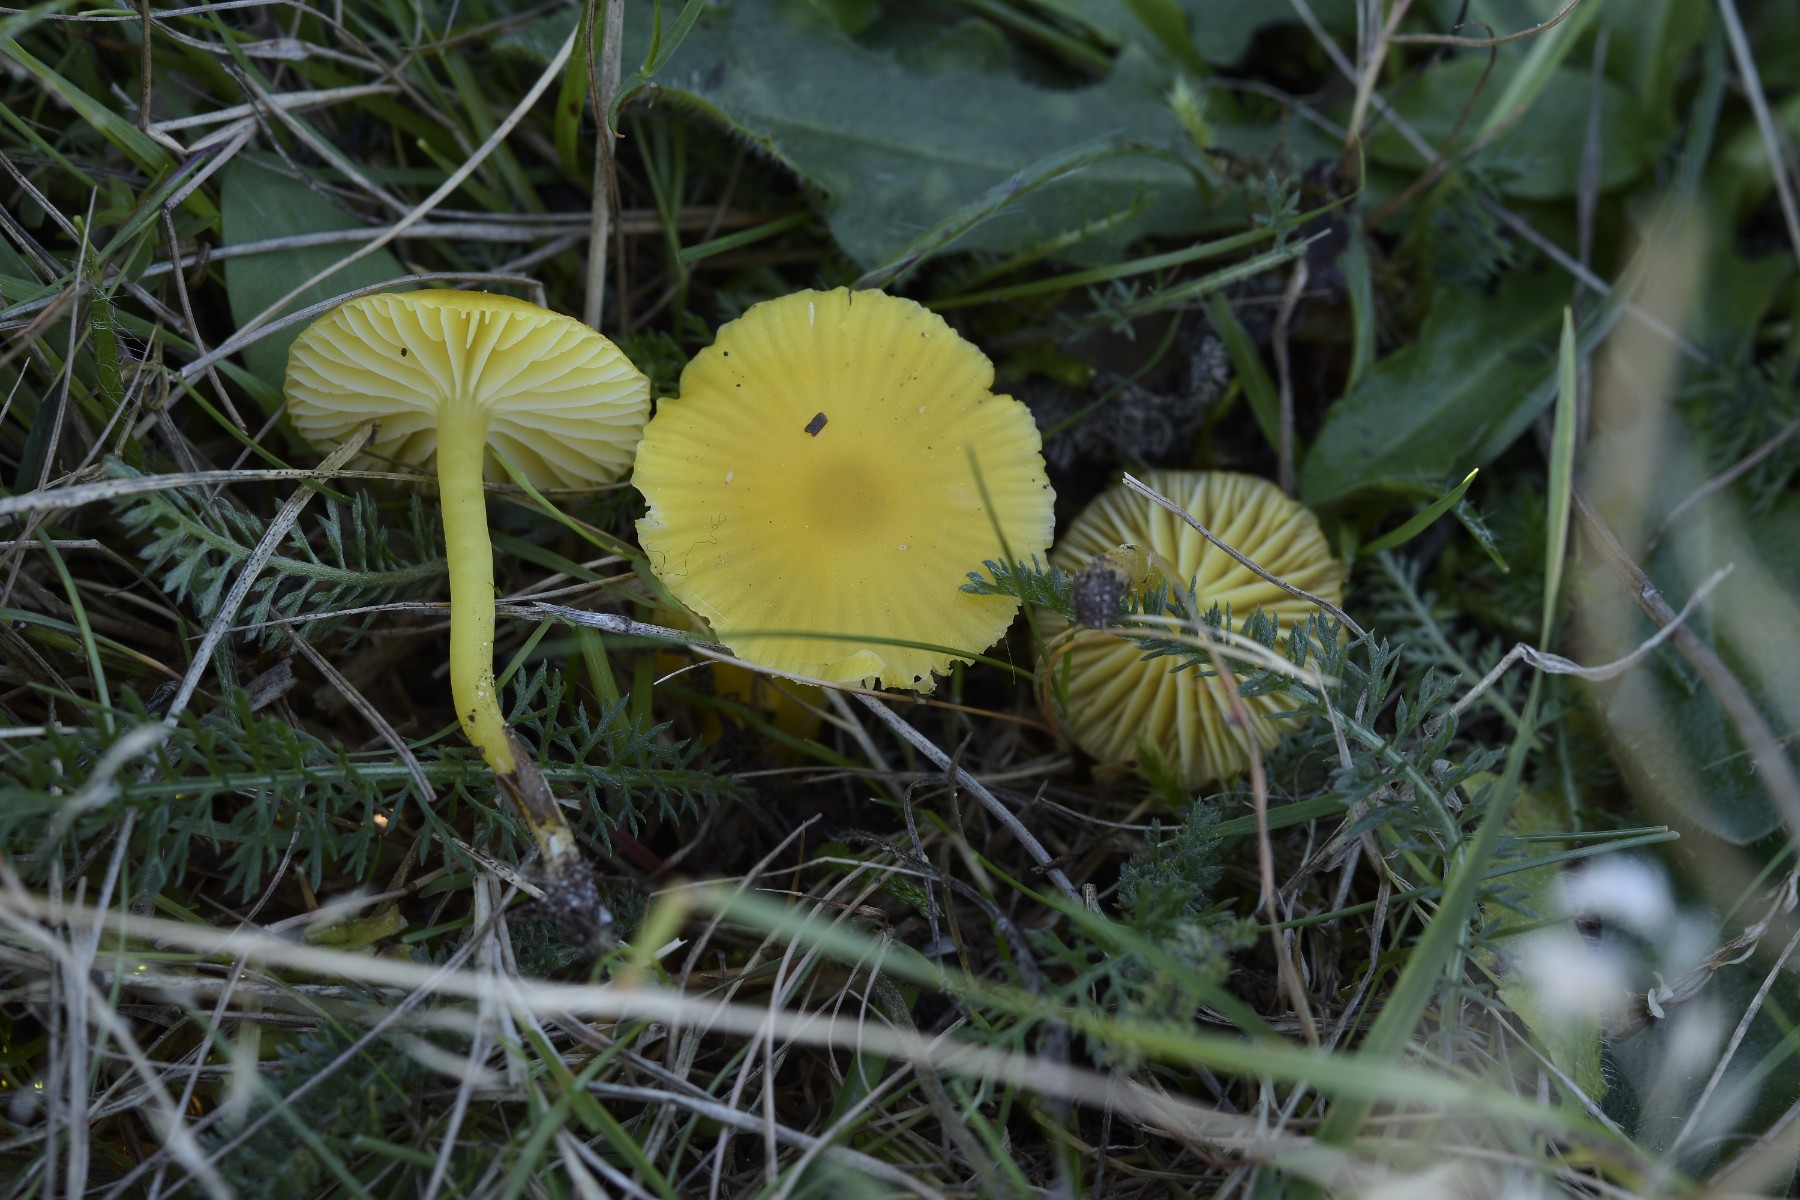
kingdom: Fungi
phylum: Basidiomycota
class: Agaricomycetes
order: Agaricales
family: Hygrophoraceae
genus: Hygrocybe
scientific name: Hygrocybe ceracea
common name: voksgul vokshat
